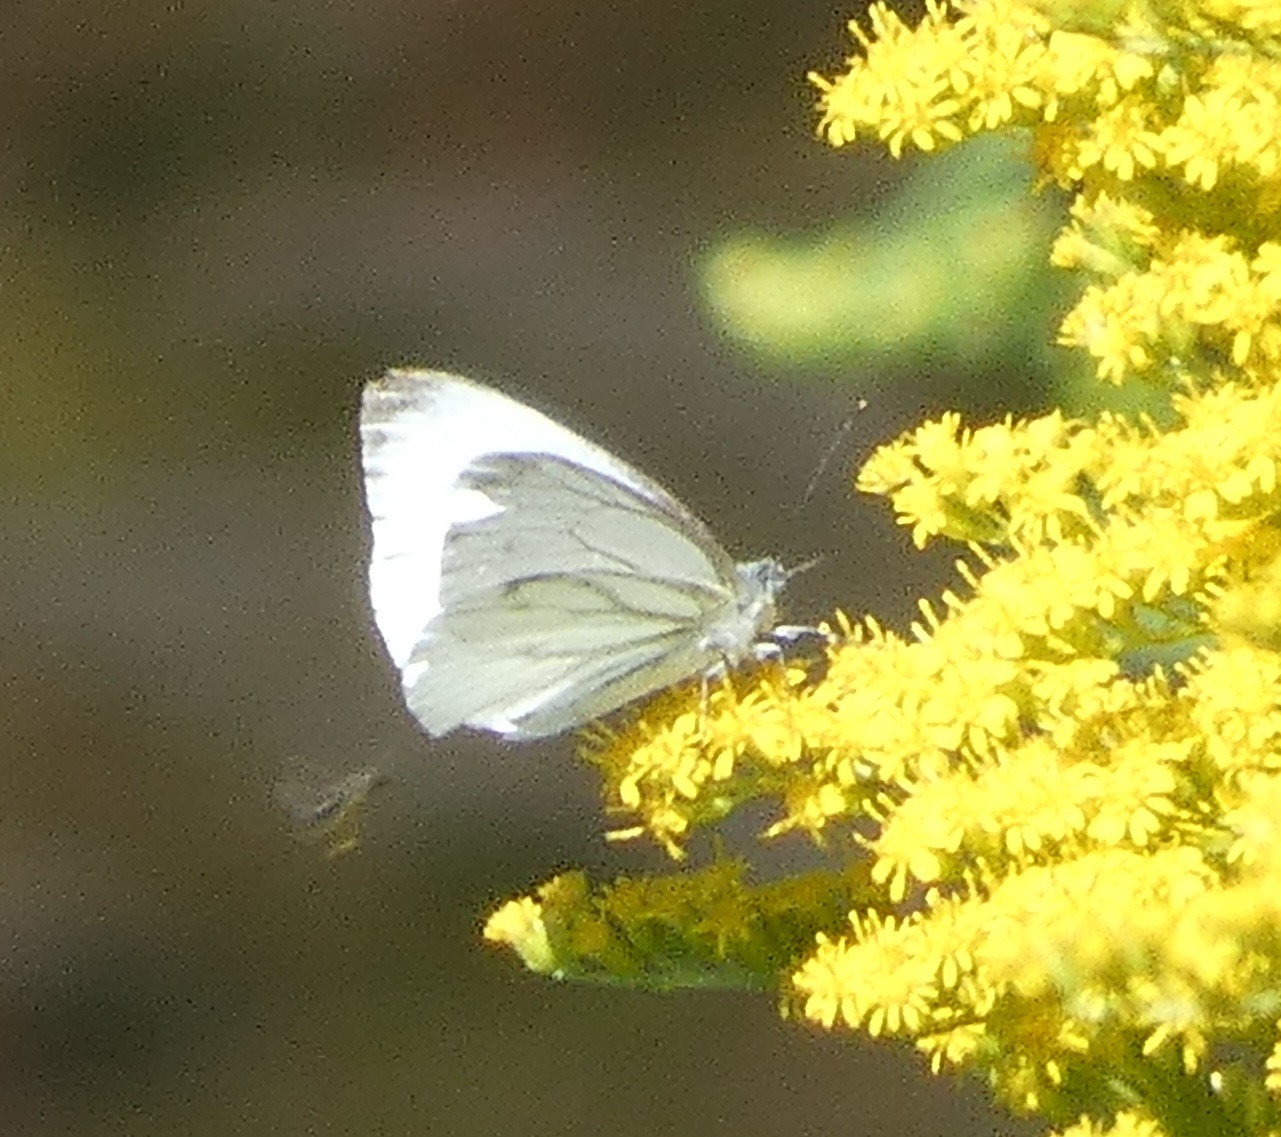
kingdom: Animalia
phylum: Arthropoda
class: Insecta
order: Lepidoptera
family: Pieridae
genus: Pieris
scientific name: Pieris napi
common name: Grønåret kålsommerfugl
